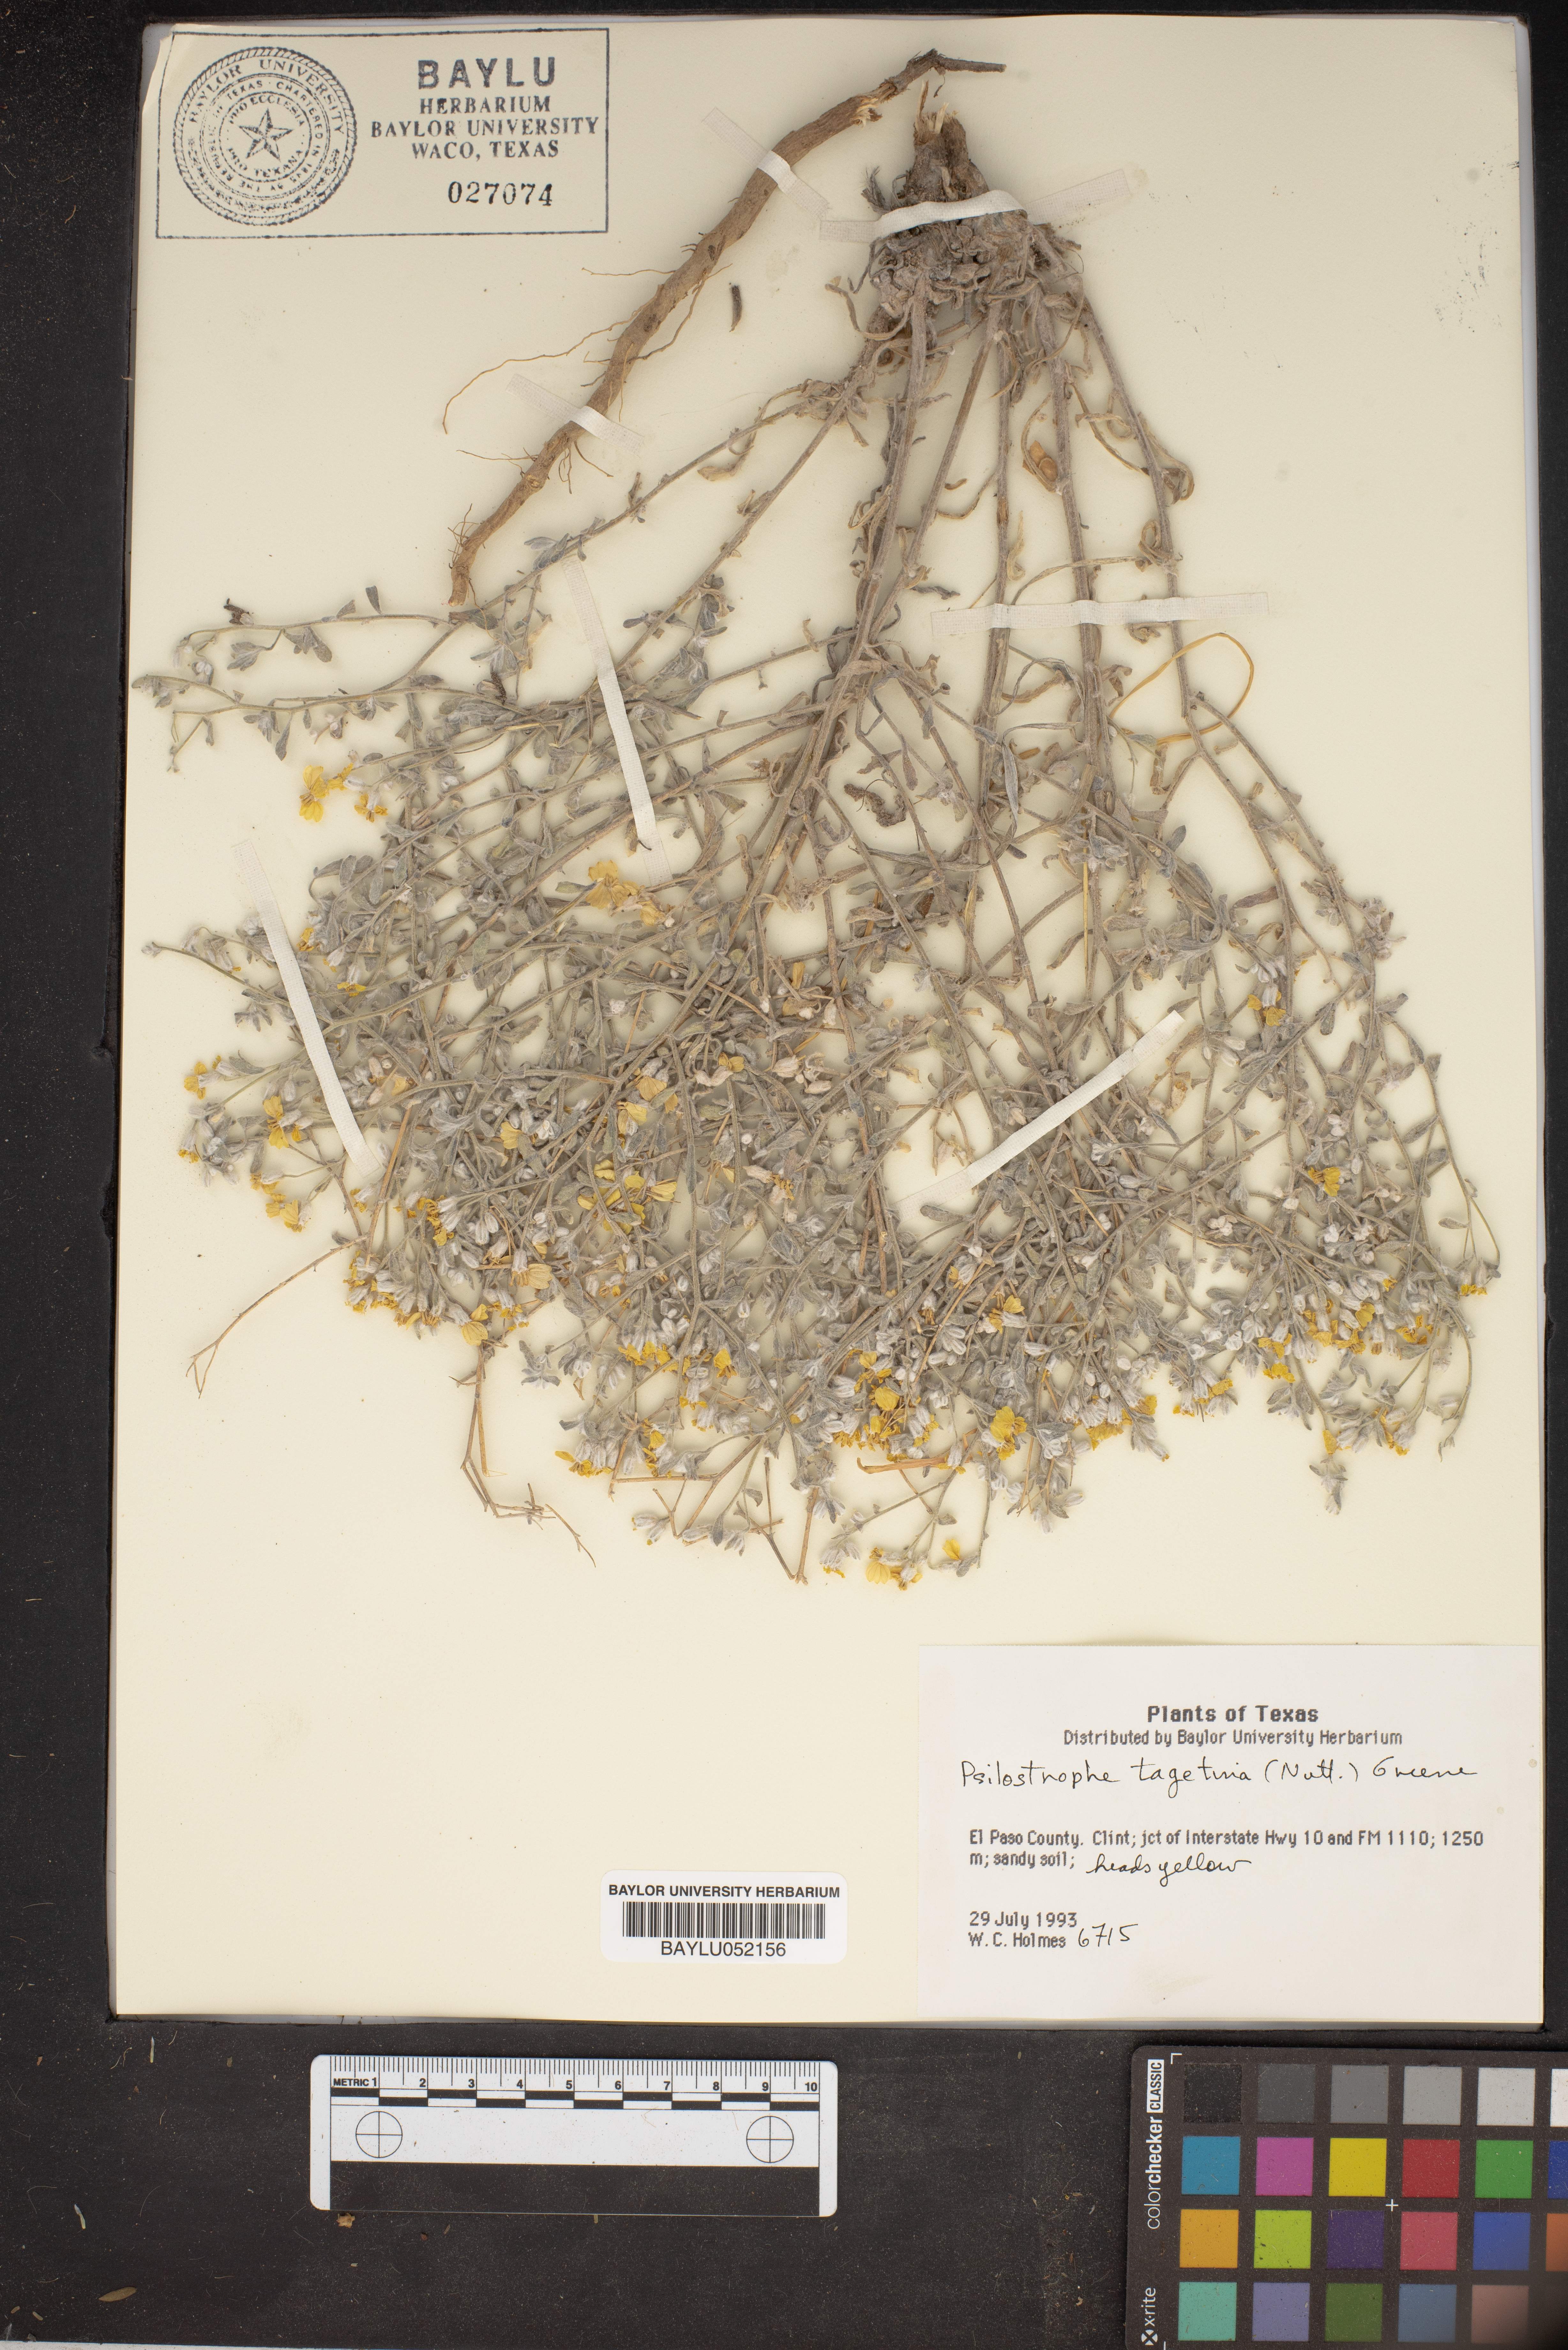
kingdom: Plantae
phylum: Tracheophyta
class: Magnoliopsida
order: Asterales
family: Asteraceae
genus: Psilostrophe
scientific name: Psilostrophe tagetina
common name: Marigold paper-flower
